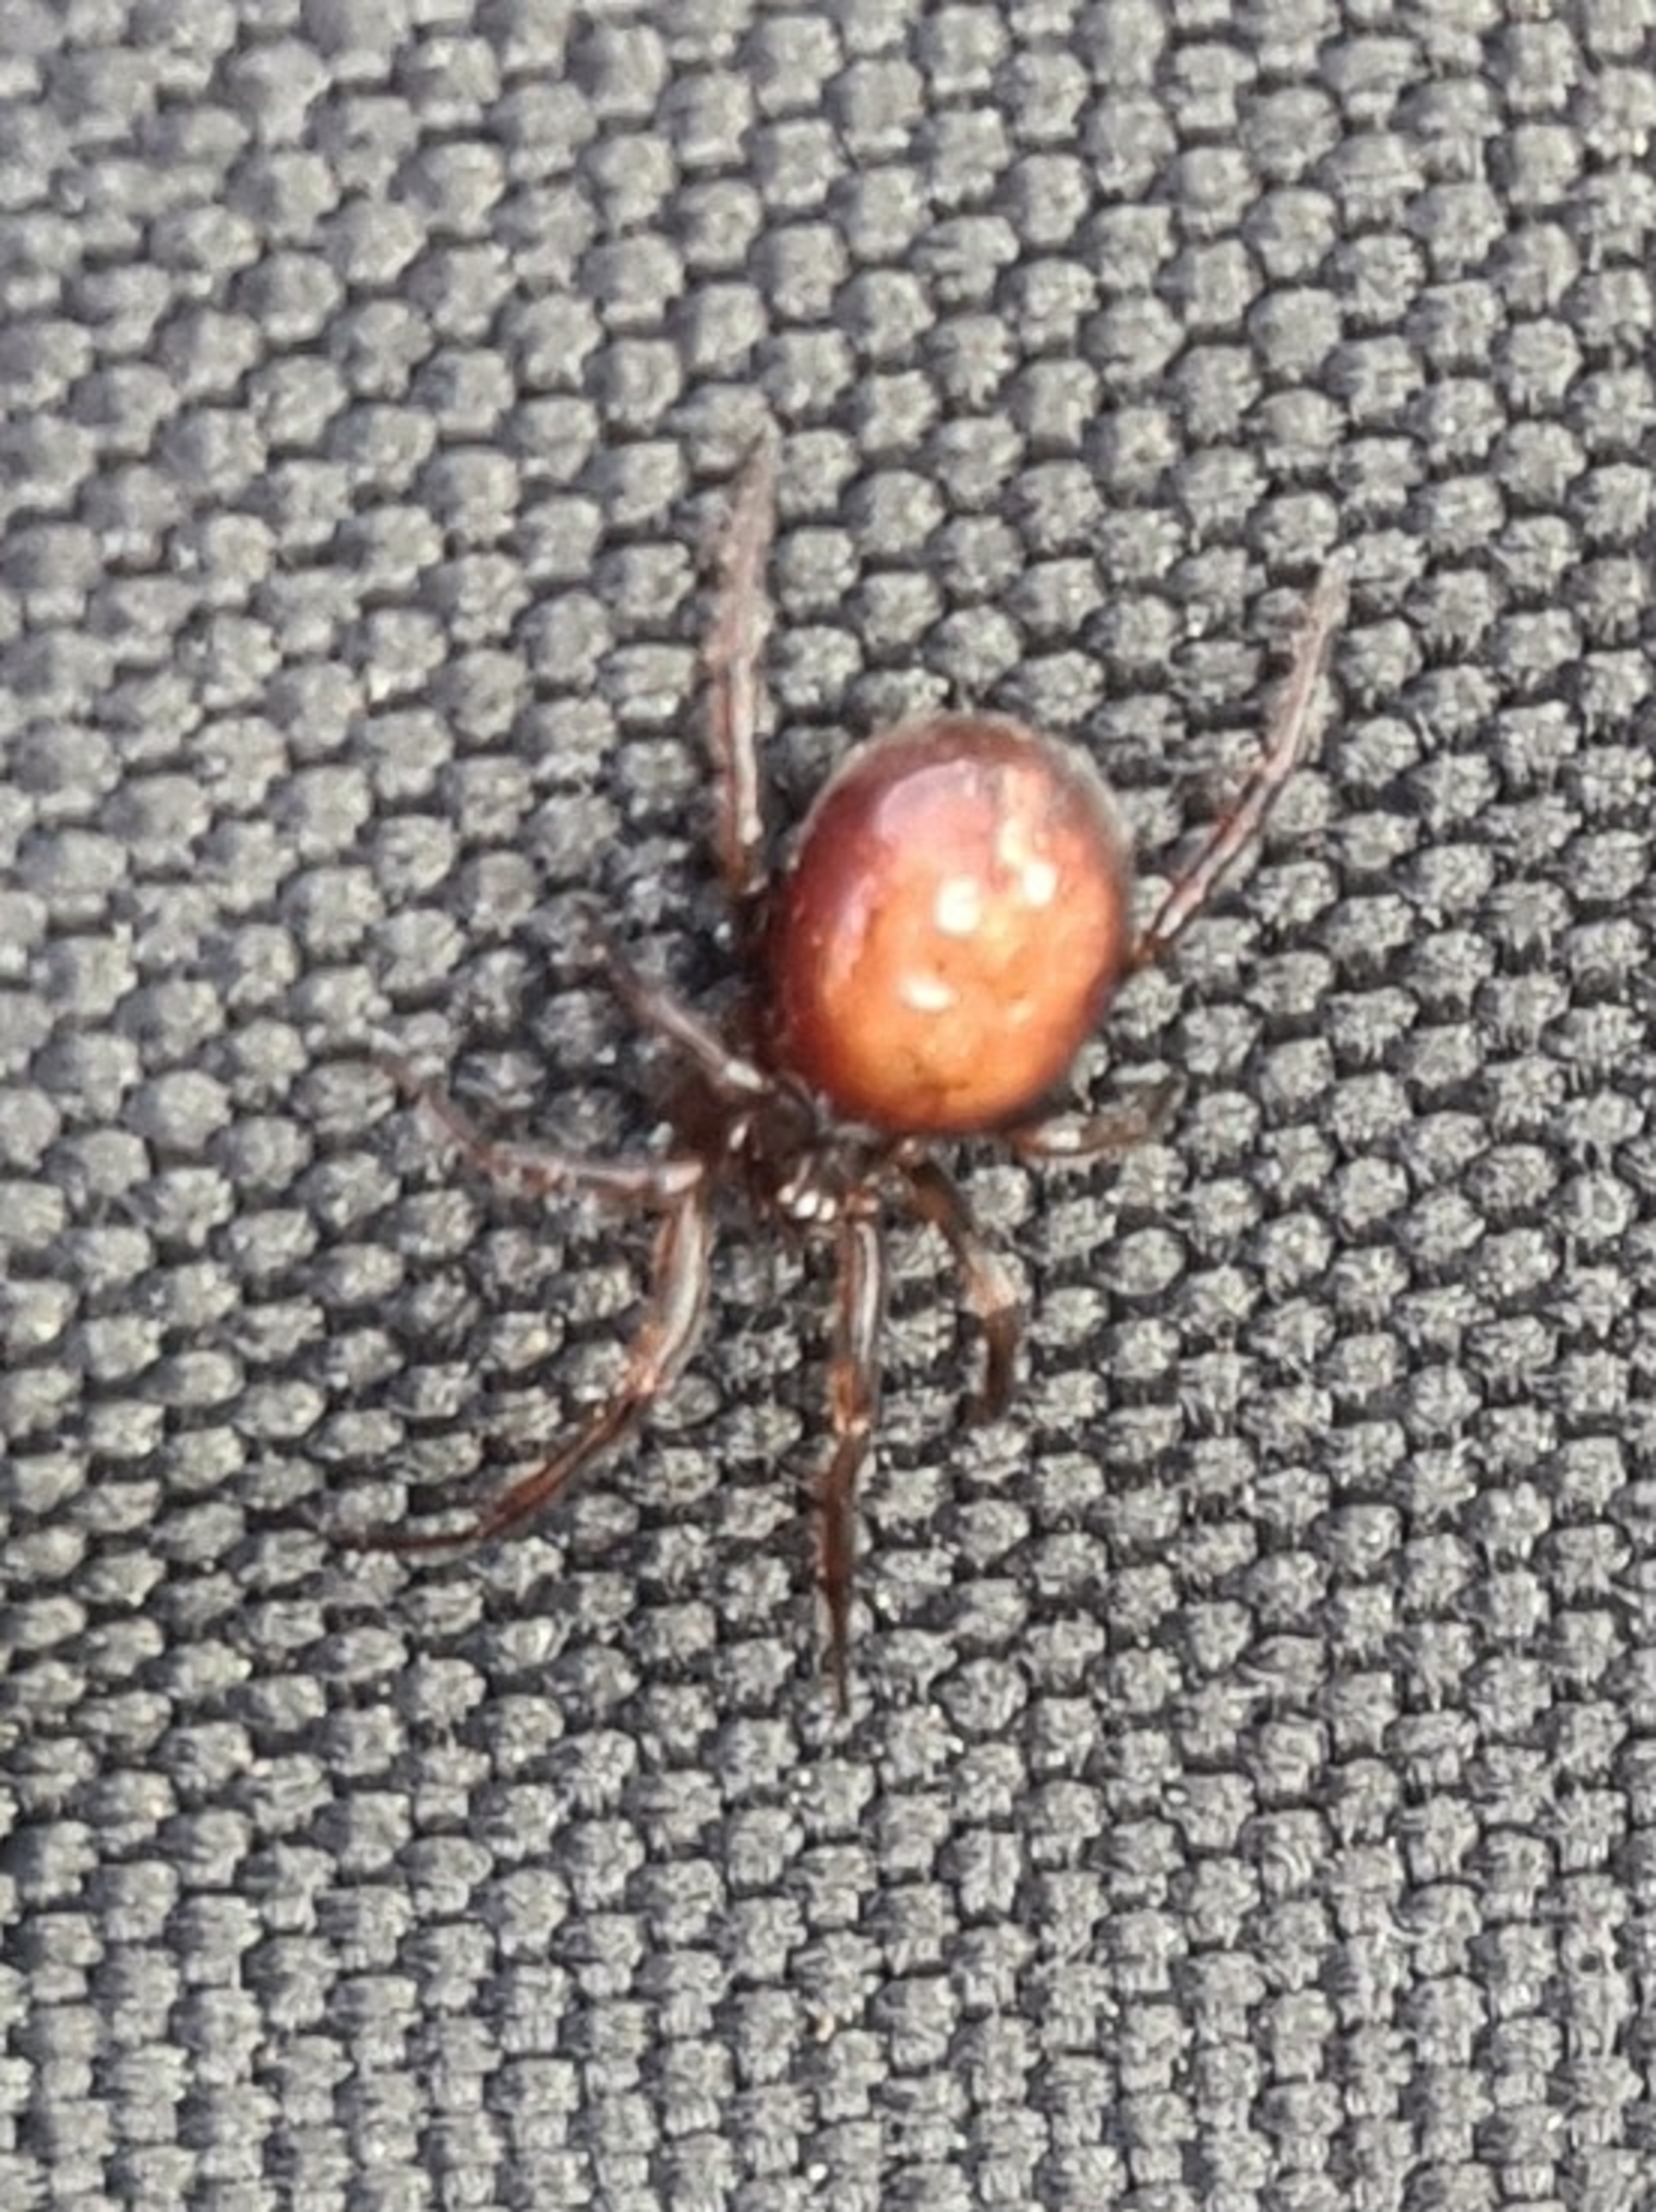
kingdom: Animalia
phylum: Arthropoda
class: Arachnida
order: Araneae
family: Theridiidae
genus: Steatoda
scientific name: Steatoda bipunctata
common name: Fedtedderkop
